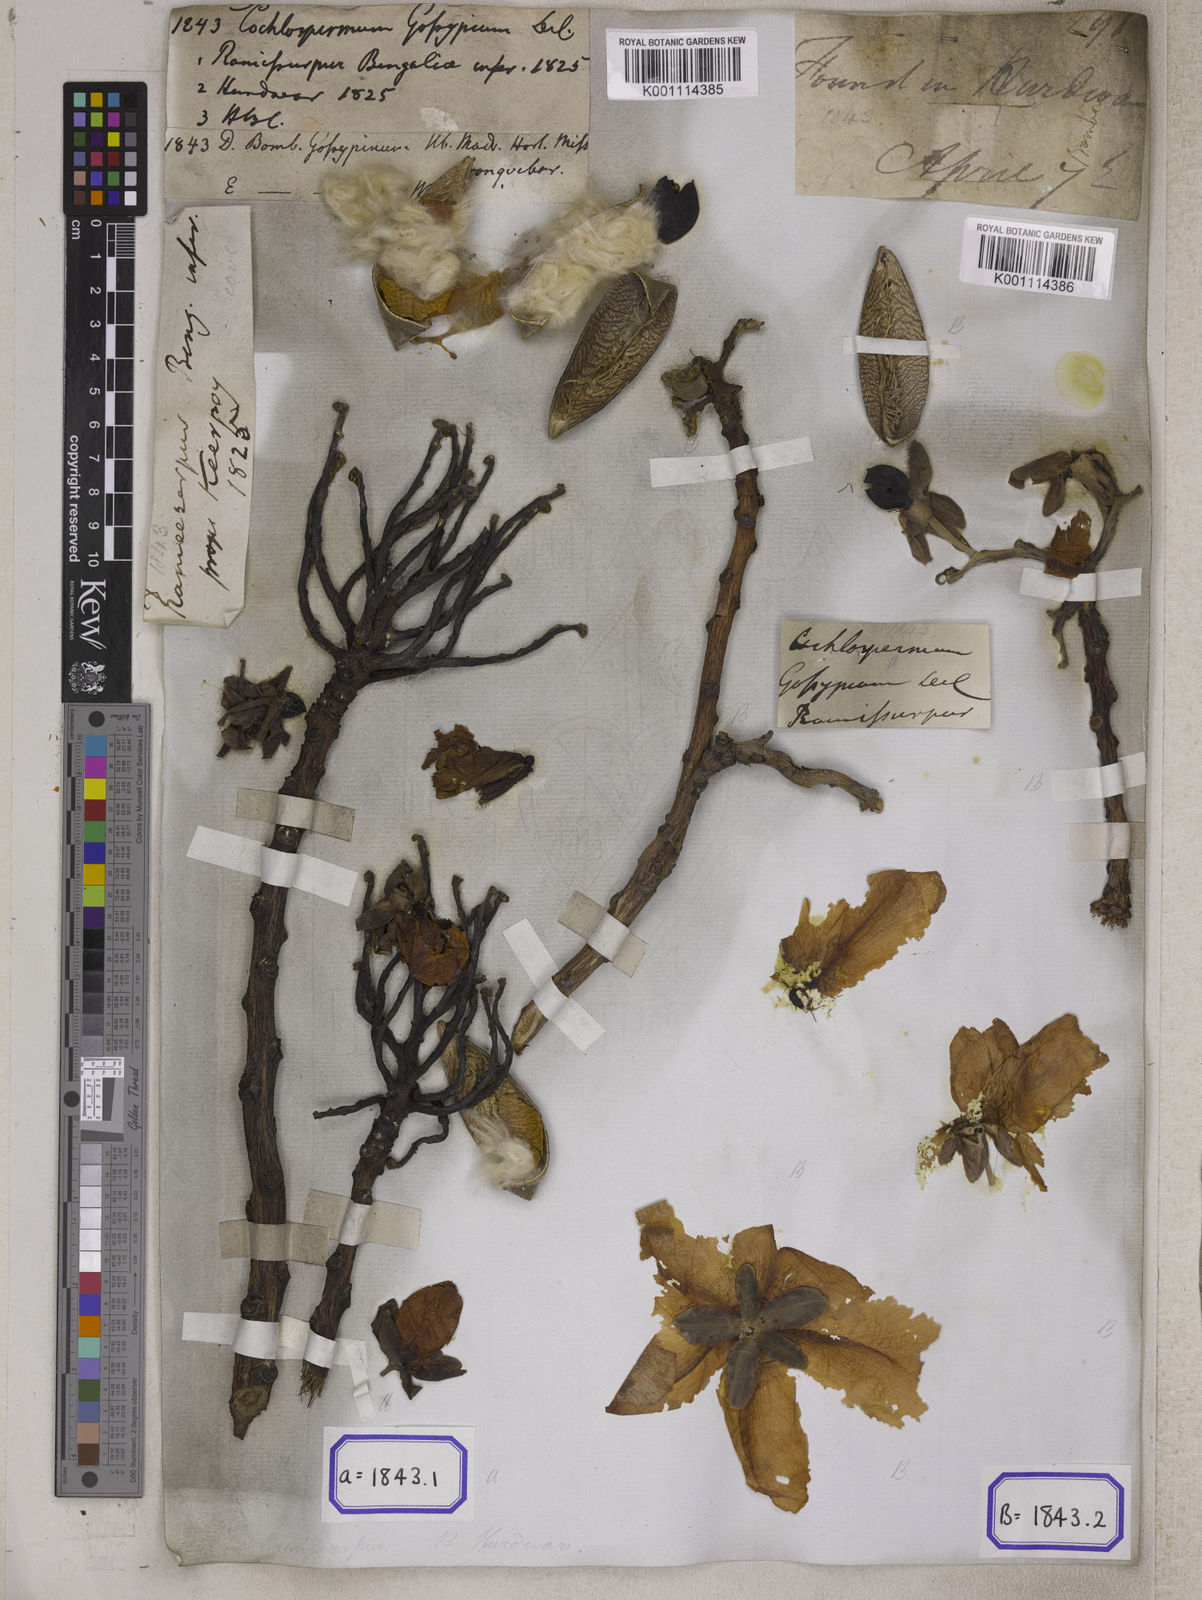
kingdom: Plantae
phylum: Tracheophyta
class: Magnoliopsida
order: Malvales
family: Cochlospermaceae
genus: Cochlospermum
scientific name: Cochlospermum religiosum
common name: Cottontree
